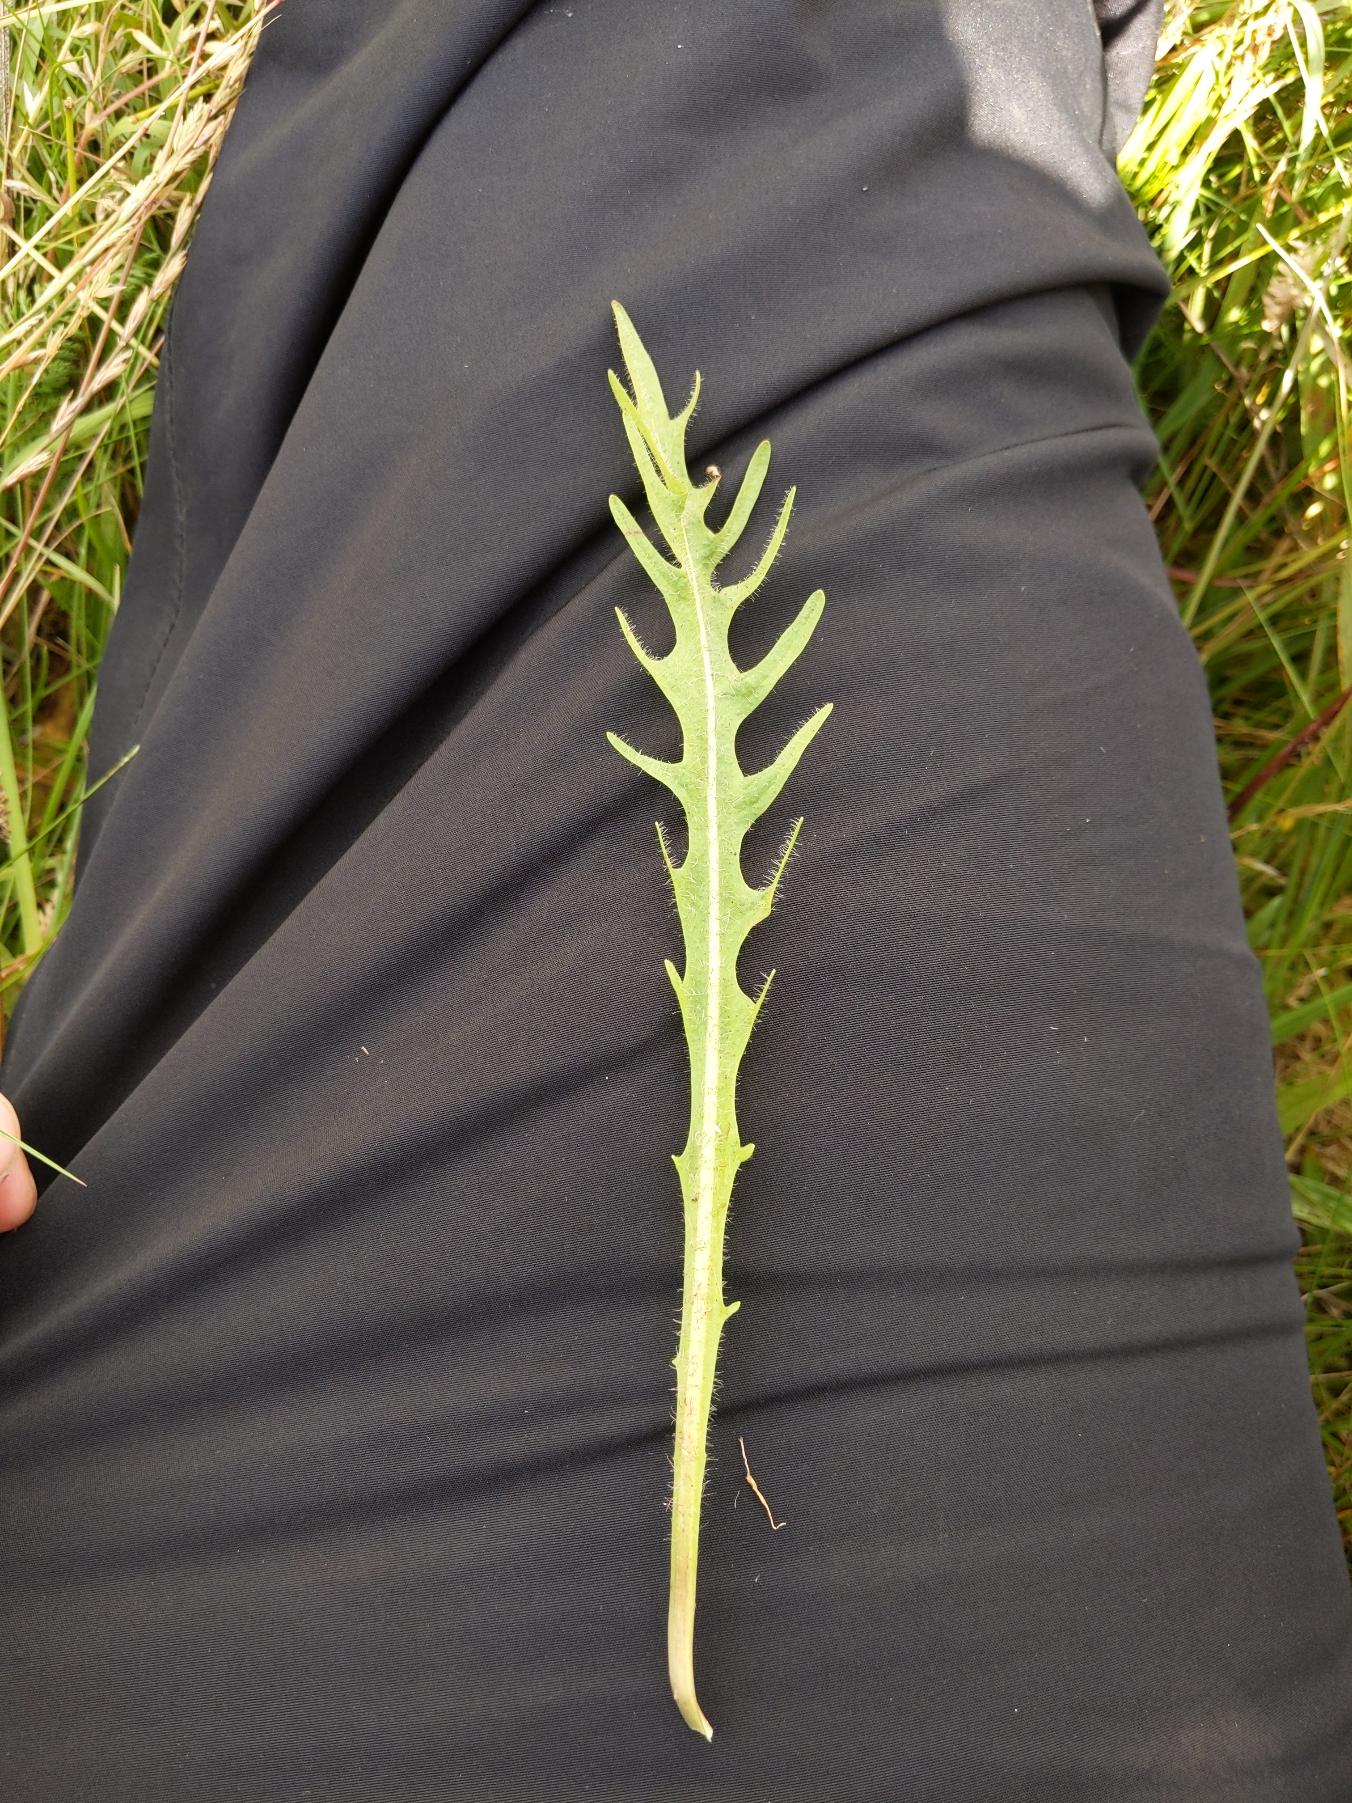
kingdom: Plantae
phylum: Tracheophyta
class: Magnoliopsida
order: Asterales
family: Asteraceae
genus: Scorzoneroides
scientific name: Scorzoneroides autumnalis
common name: Høst-borst
